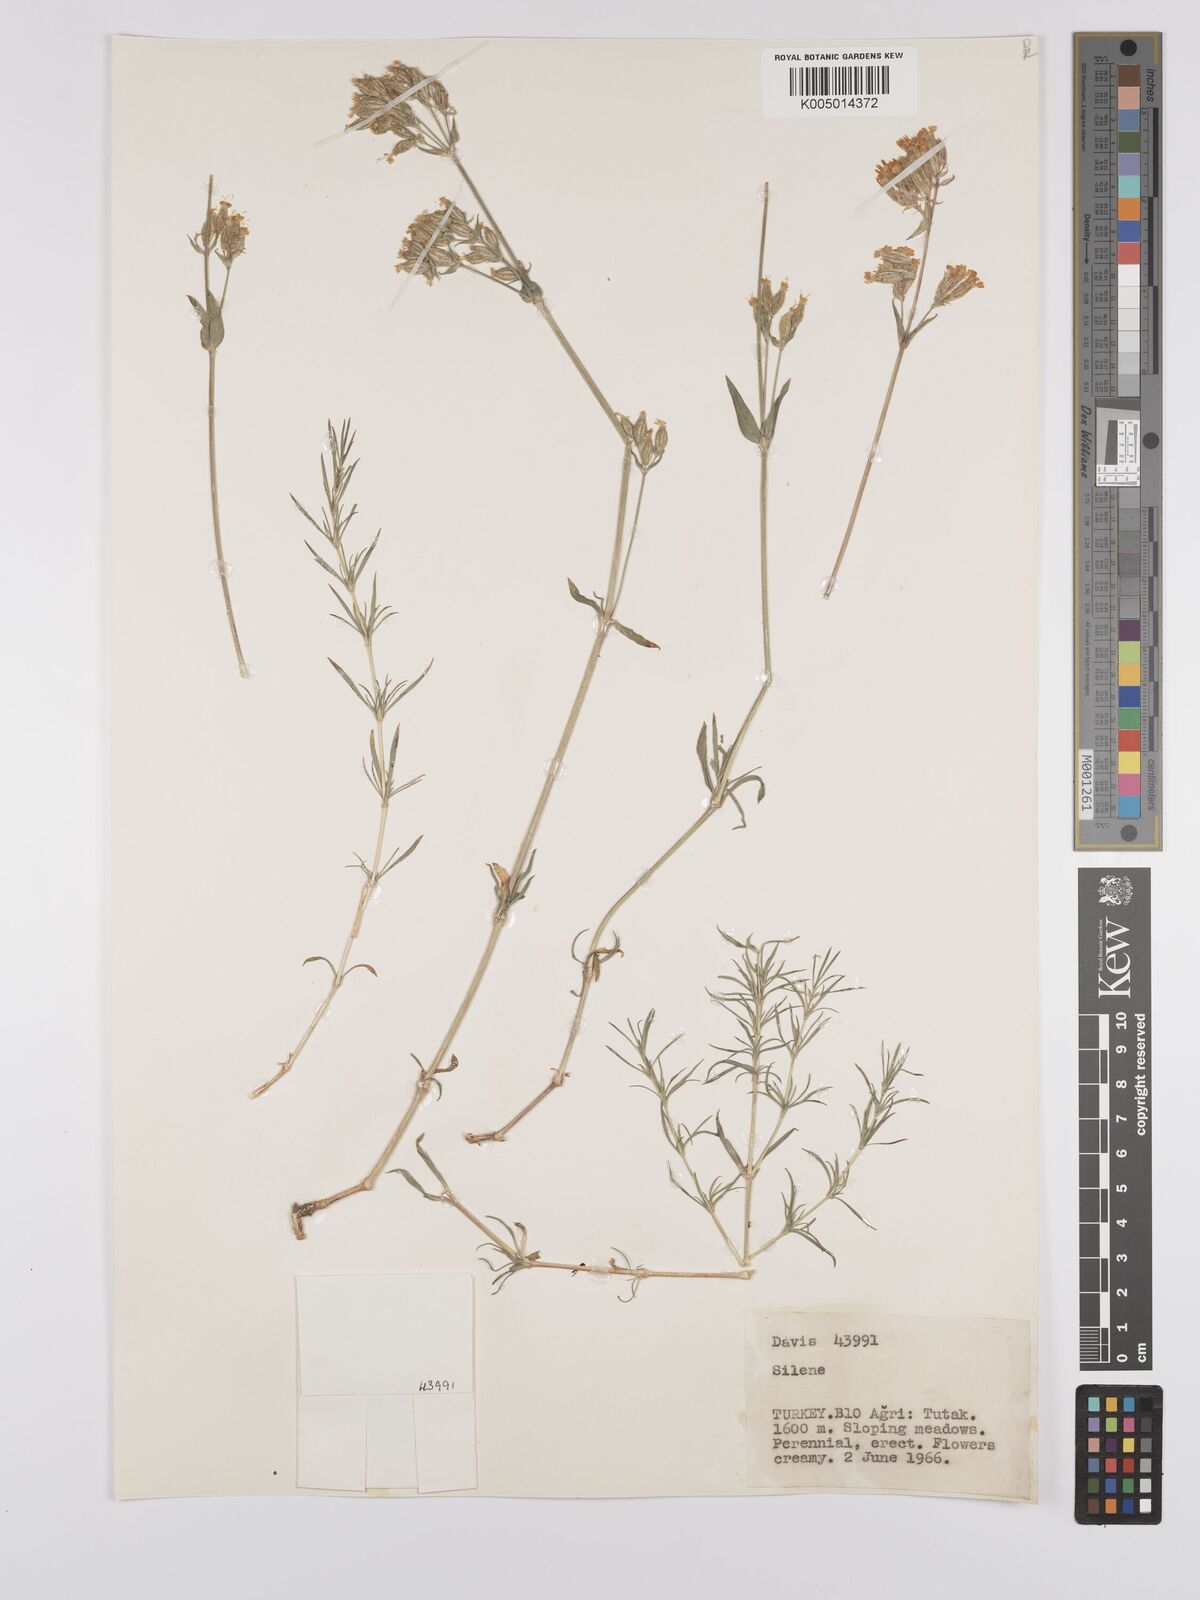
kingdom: Plantae
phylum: Tracheophyta
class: Magnoliopsida
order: Caryophyllales
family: Caryophyllaceae
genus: Silene
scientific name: Silene
